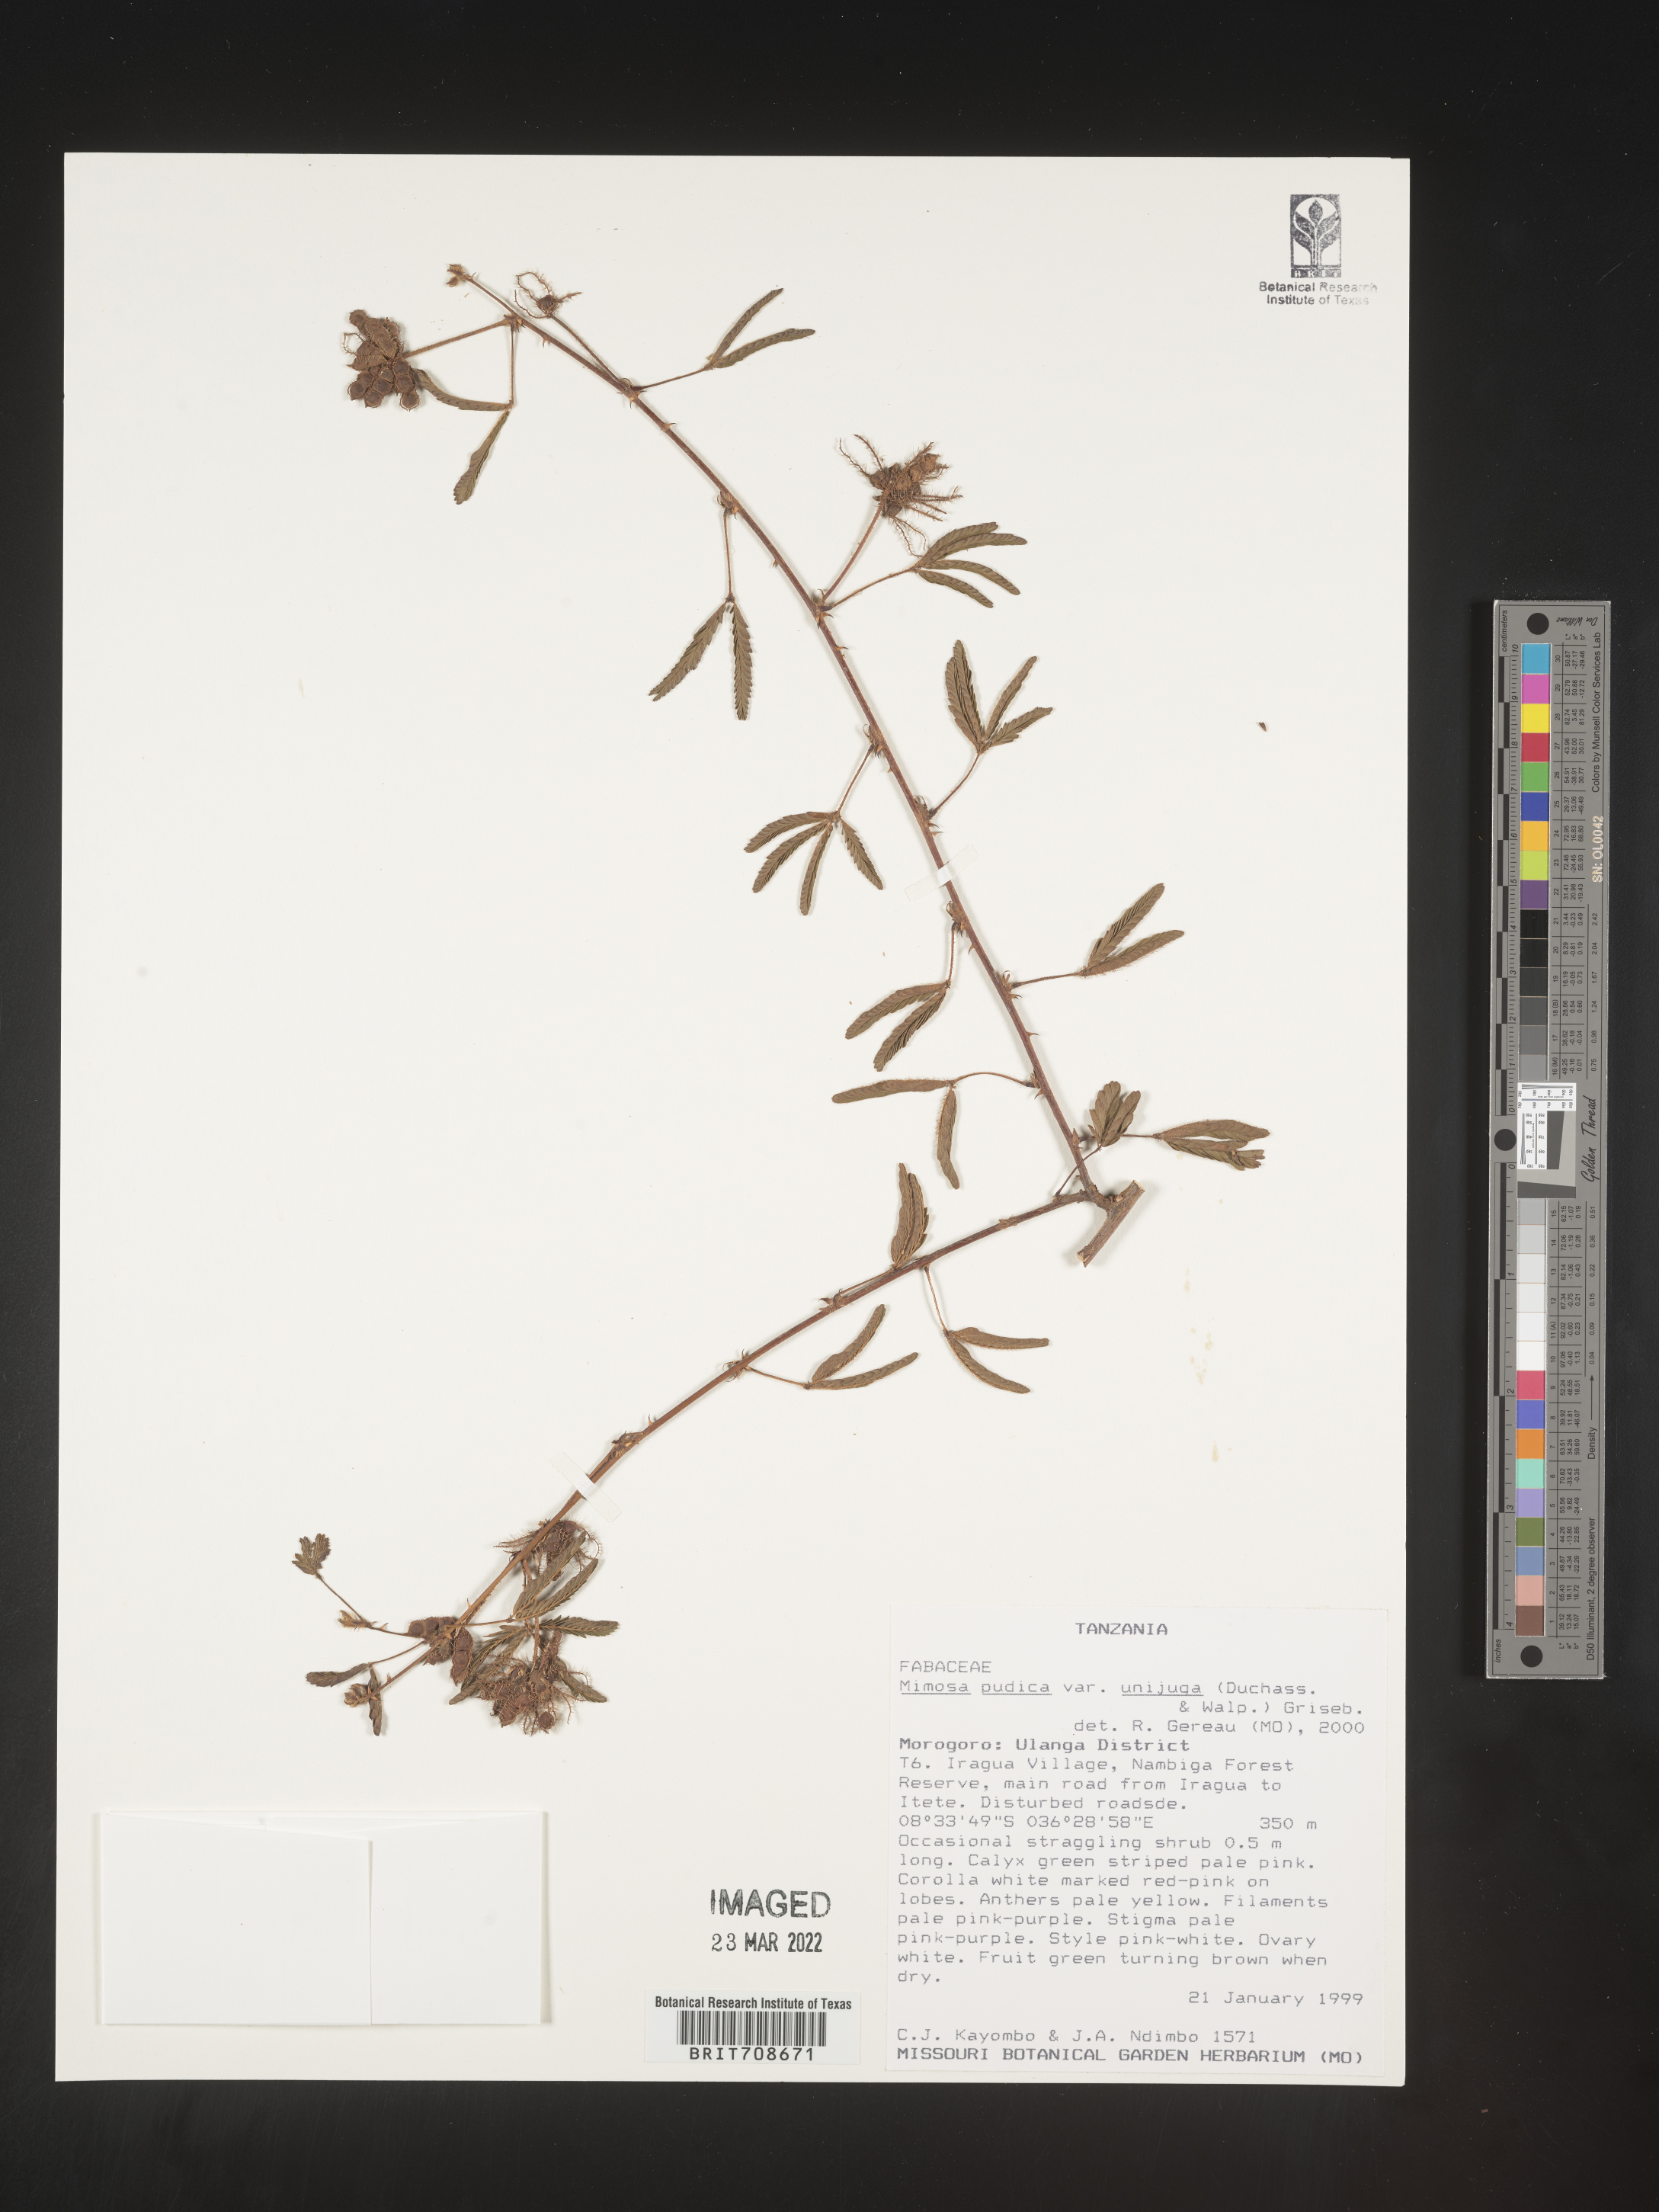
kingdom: Plantae
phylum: Tracheophyta
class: Magnoliopsida
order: Fabales
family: Fabaceae
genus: Mimosa
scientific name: Mimosa
